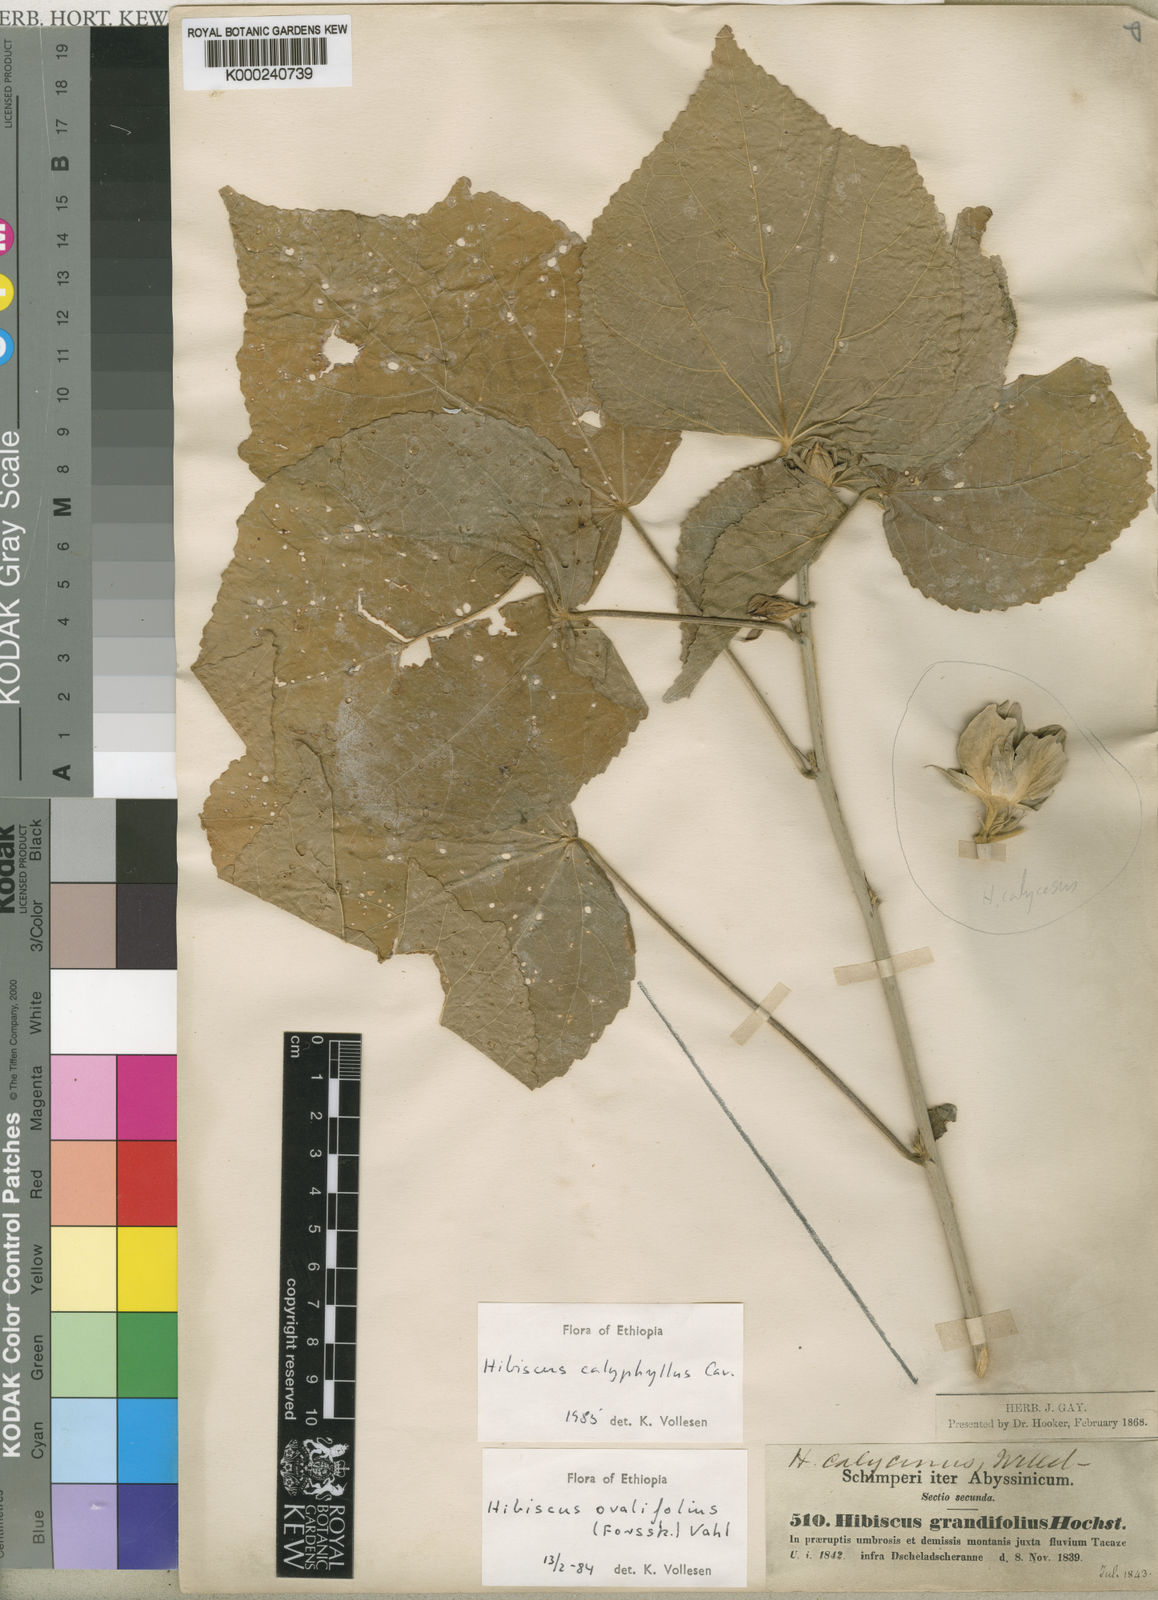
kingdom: Plantae
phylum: Tracheophyta
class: Magnoliopsida
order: Malvales
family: Malvaceae
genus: Hibiscus
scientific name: Hibiscus calyphyllus
